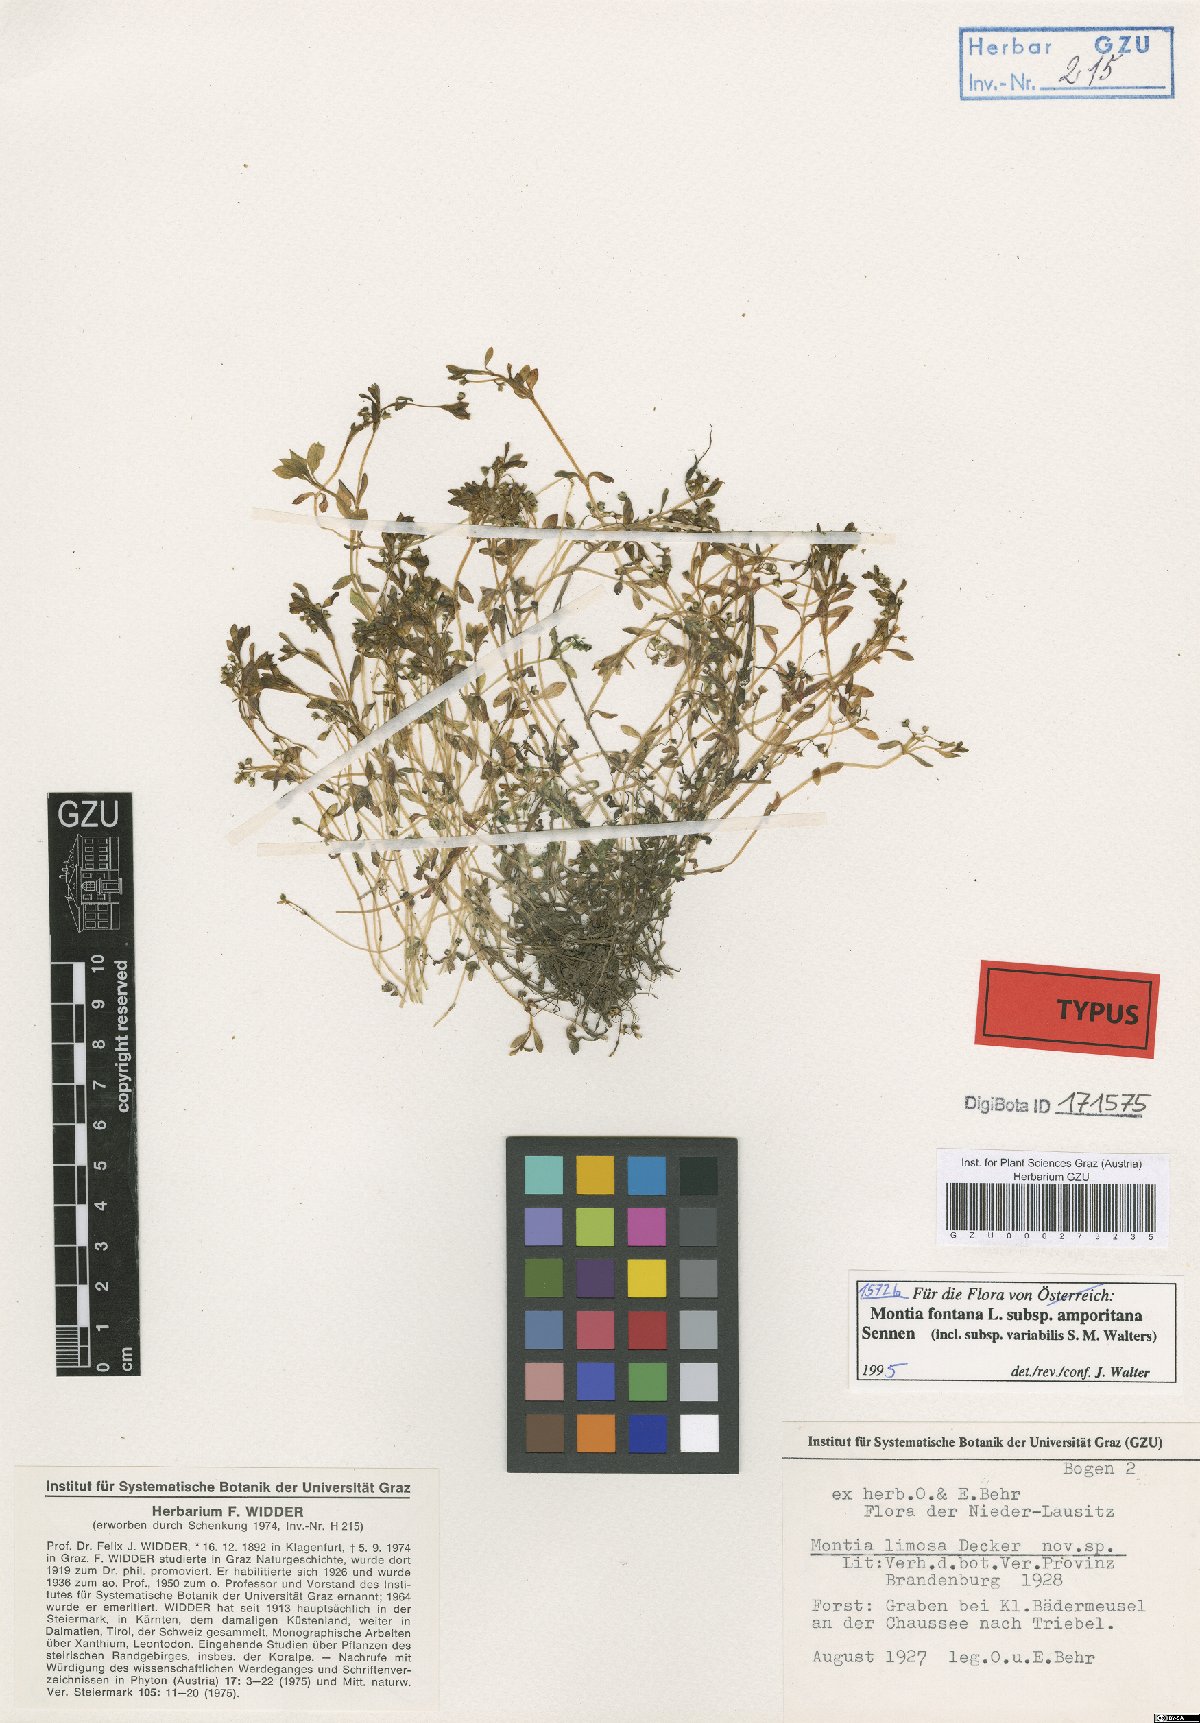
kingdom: Plantae
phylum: Tracheophyta
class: Magnoliopsida
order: Caryophyllales
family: Montiaceae
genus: Montia
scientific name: Montia fontana
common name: Blinks
